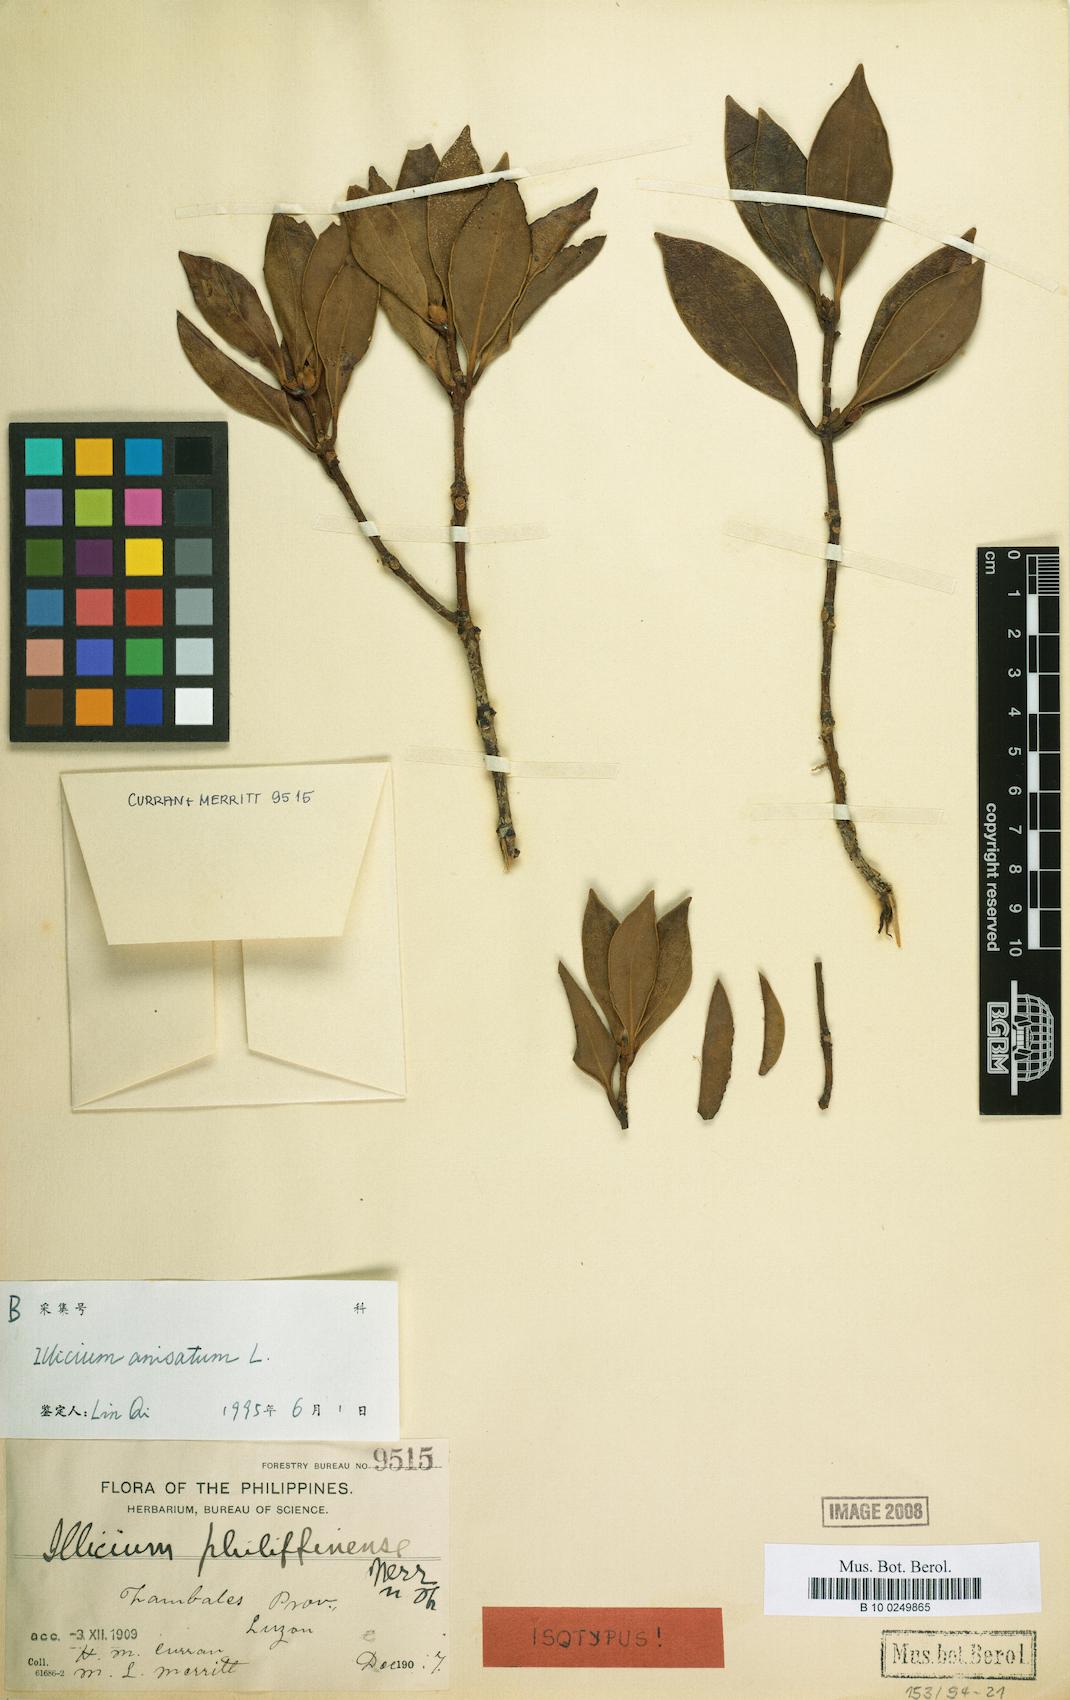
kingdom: Plantae
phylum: Tracheophyta
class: Magnoliopsida
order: Austrobaileyales
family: Schisandraceae
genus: Illicium
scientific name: Illicium anisatum
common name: Sacred anisetree
